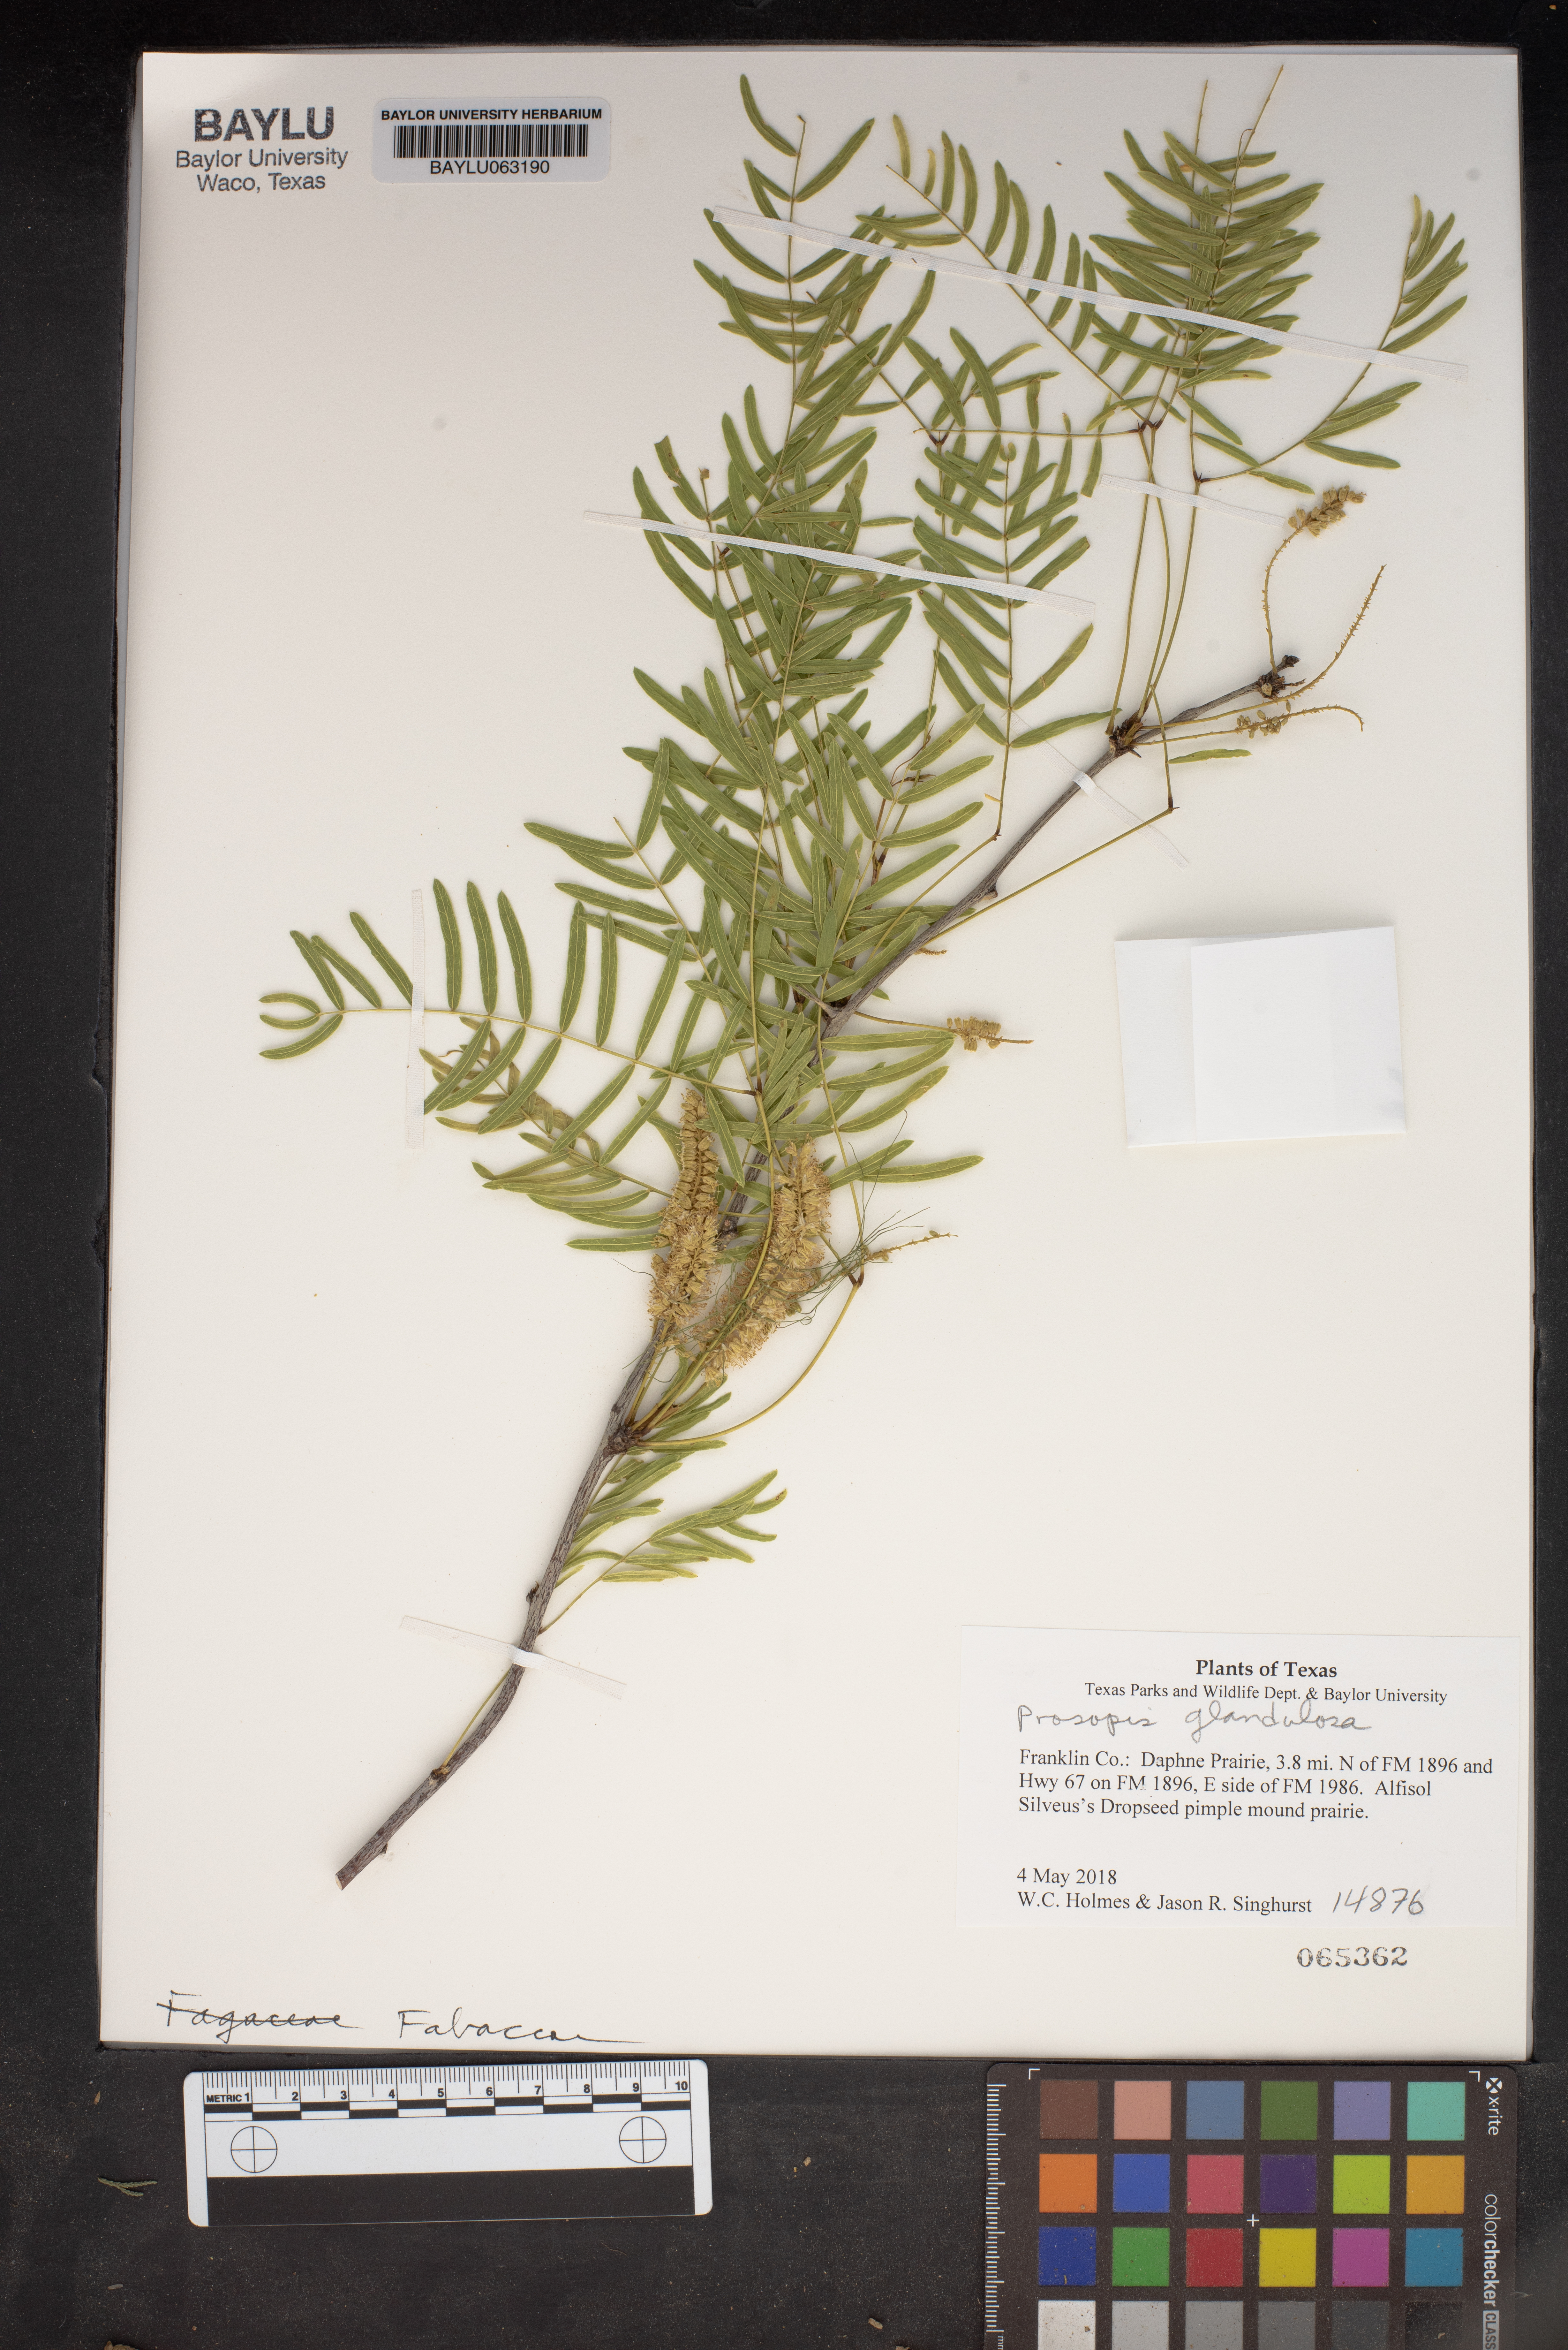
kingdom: Plantae
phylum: Tracheophyta
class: Magnoliopsida
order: Fabales
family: Fabaceae
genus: Prosopis
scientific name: Prosopis glandulosa
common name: Honey mesquite
